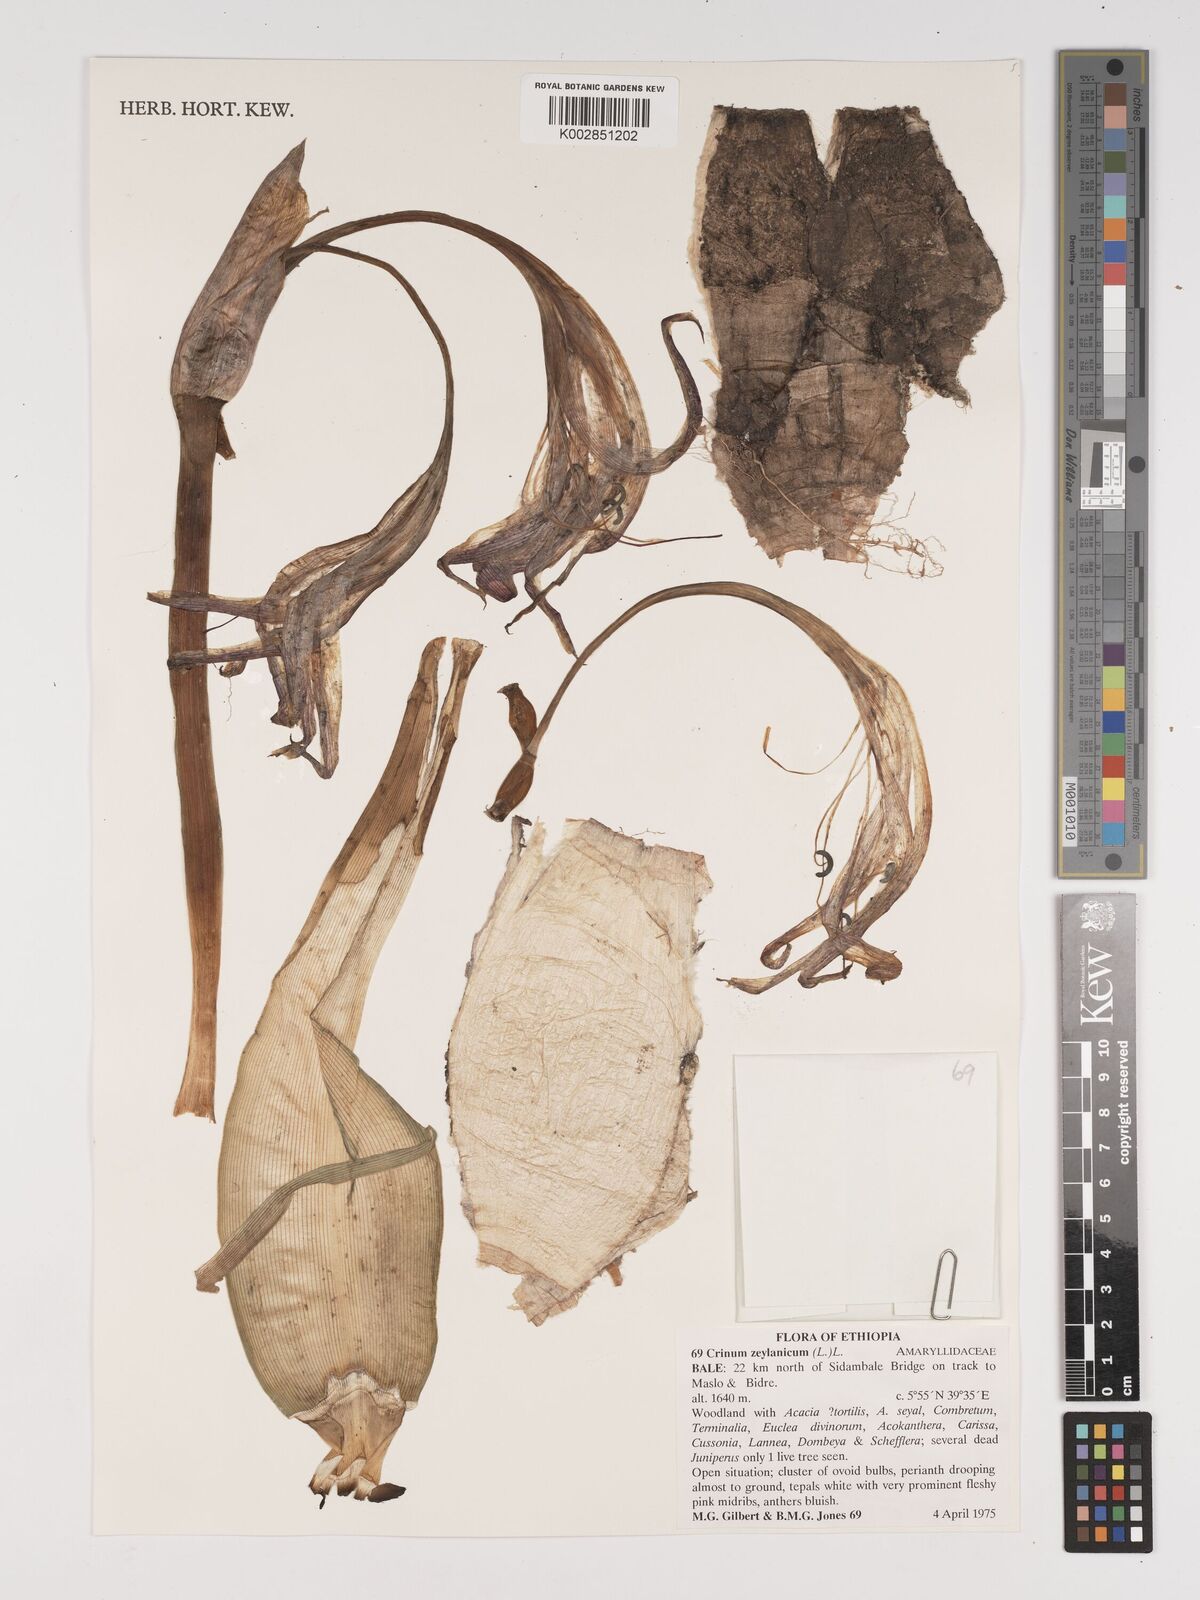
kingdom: Plantae
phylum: Tracheophyta
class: Liliopsida
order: Asparagales
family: Amaryllidaceae
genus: Crinum
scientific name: Crinum zeylanicum
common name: Ceylon swamplily
